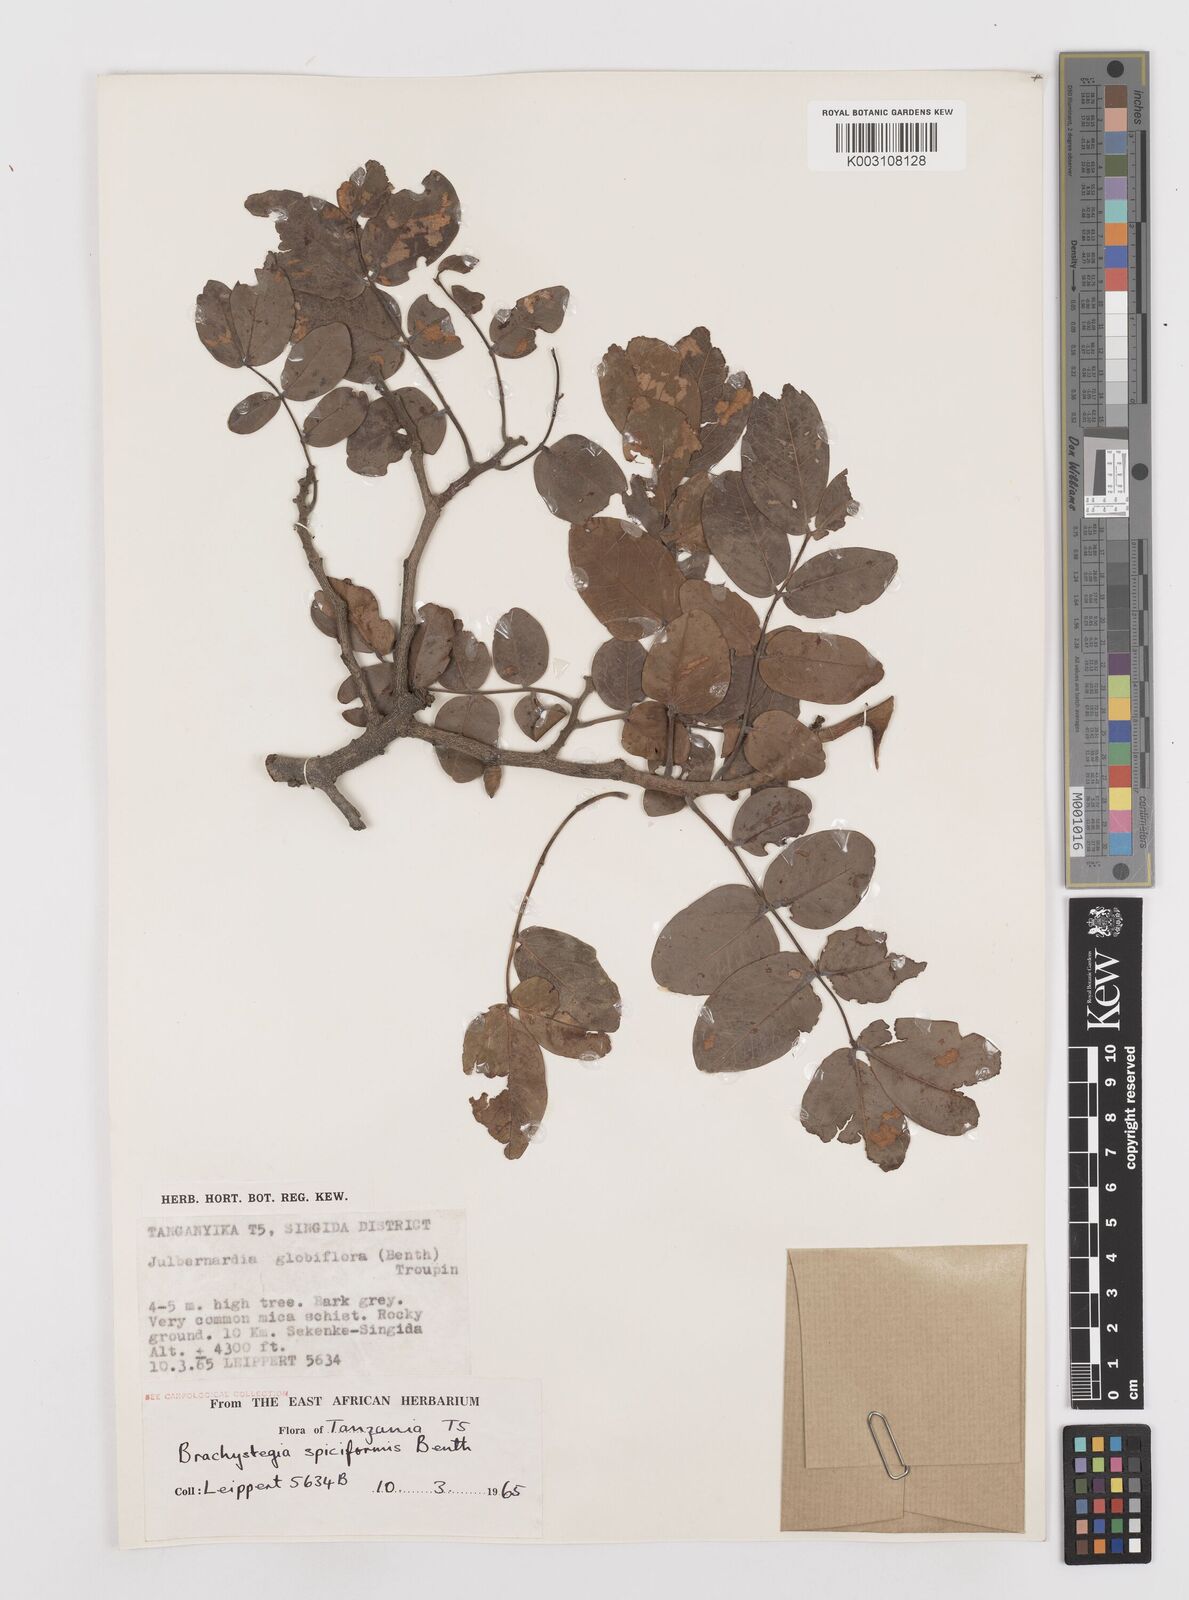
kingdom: Plantae
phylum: Tracheophyta
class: Magnoliopsida
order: Fabales
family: Fabaceae
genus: Brachystegia
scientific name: Brachystegia spiciformis
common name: Zebrawood
